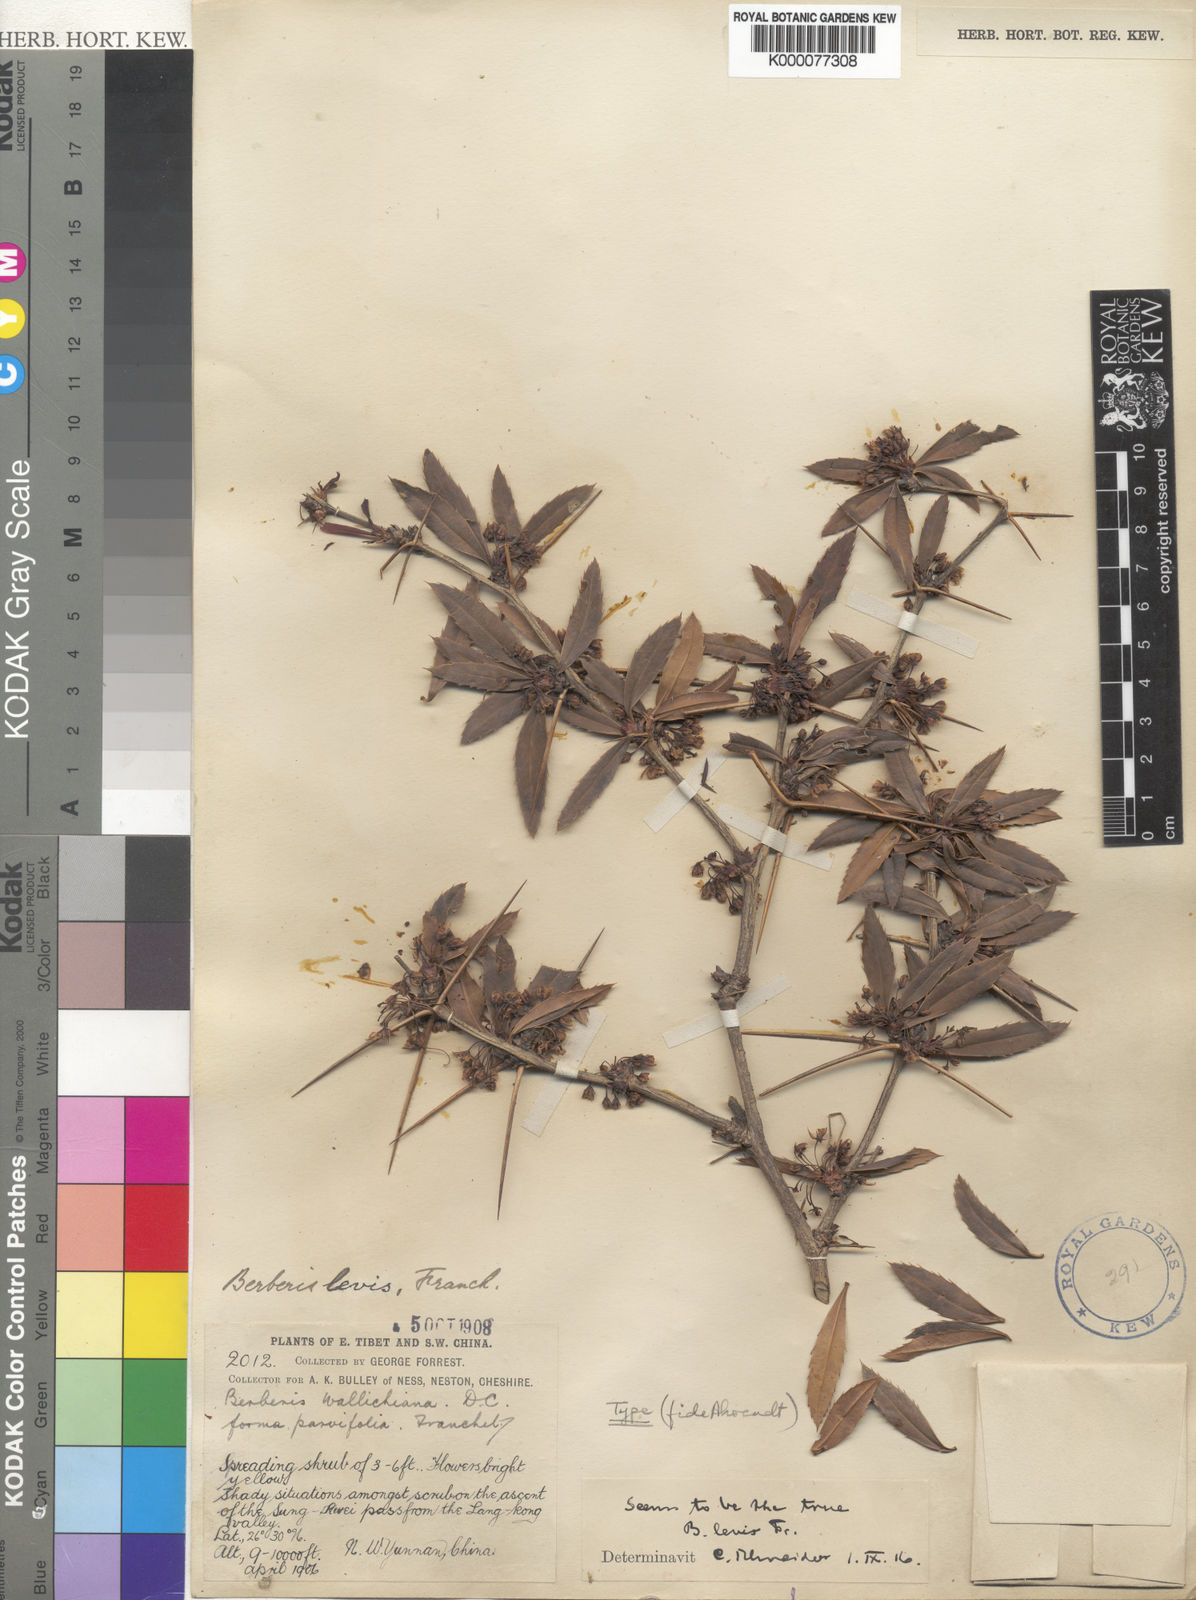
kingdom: Plantae
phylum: Tracheophyta
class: Magnoliopsida
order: Ranunculales
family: Berberidaceae
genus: Berberis
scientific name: Berberis levis
